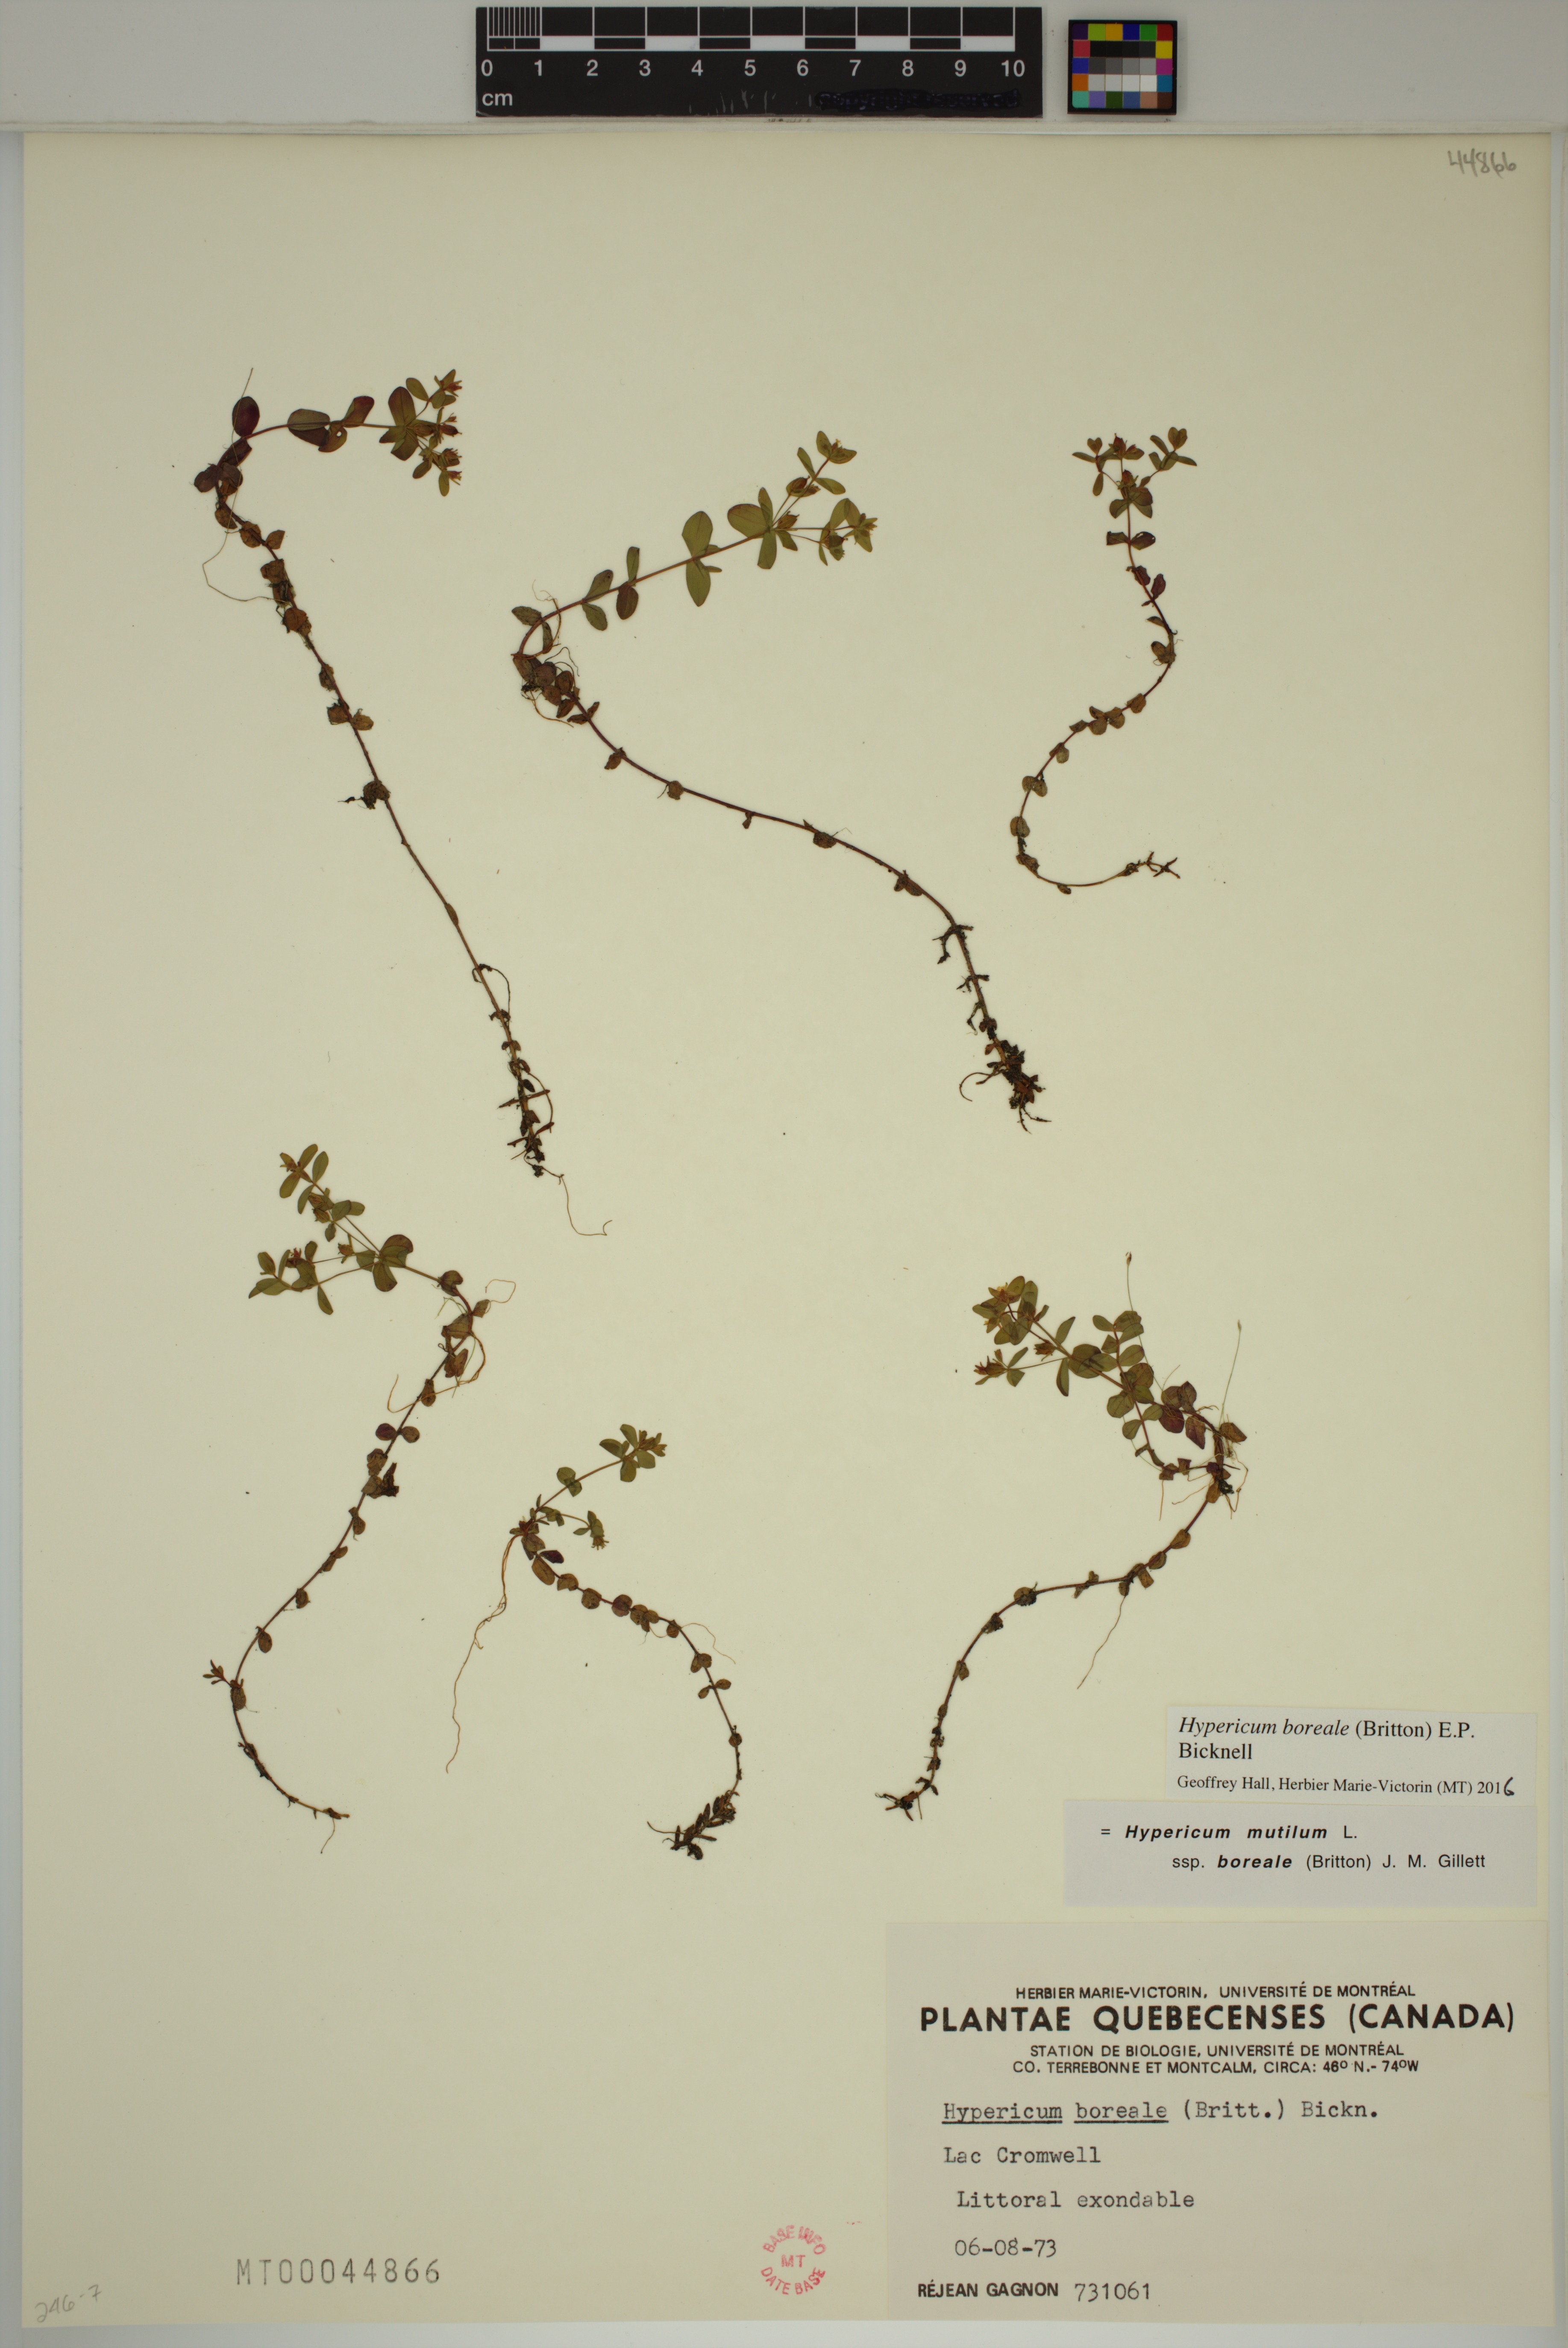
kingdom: Plantae
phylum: Tracheophyta
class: Magnoliopsida
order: Malpighiales
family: Hypericaceae
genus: Hypericum
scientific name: Hypericum boreale
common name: Northern bog st. john's-wort
